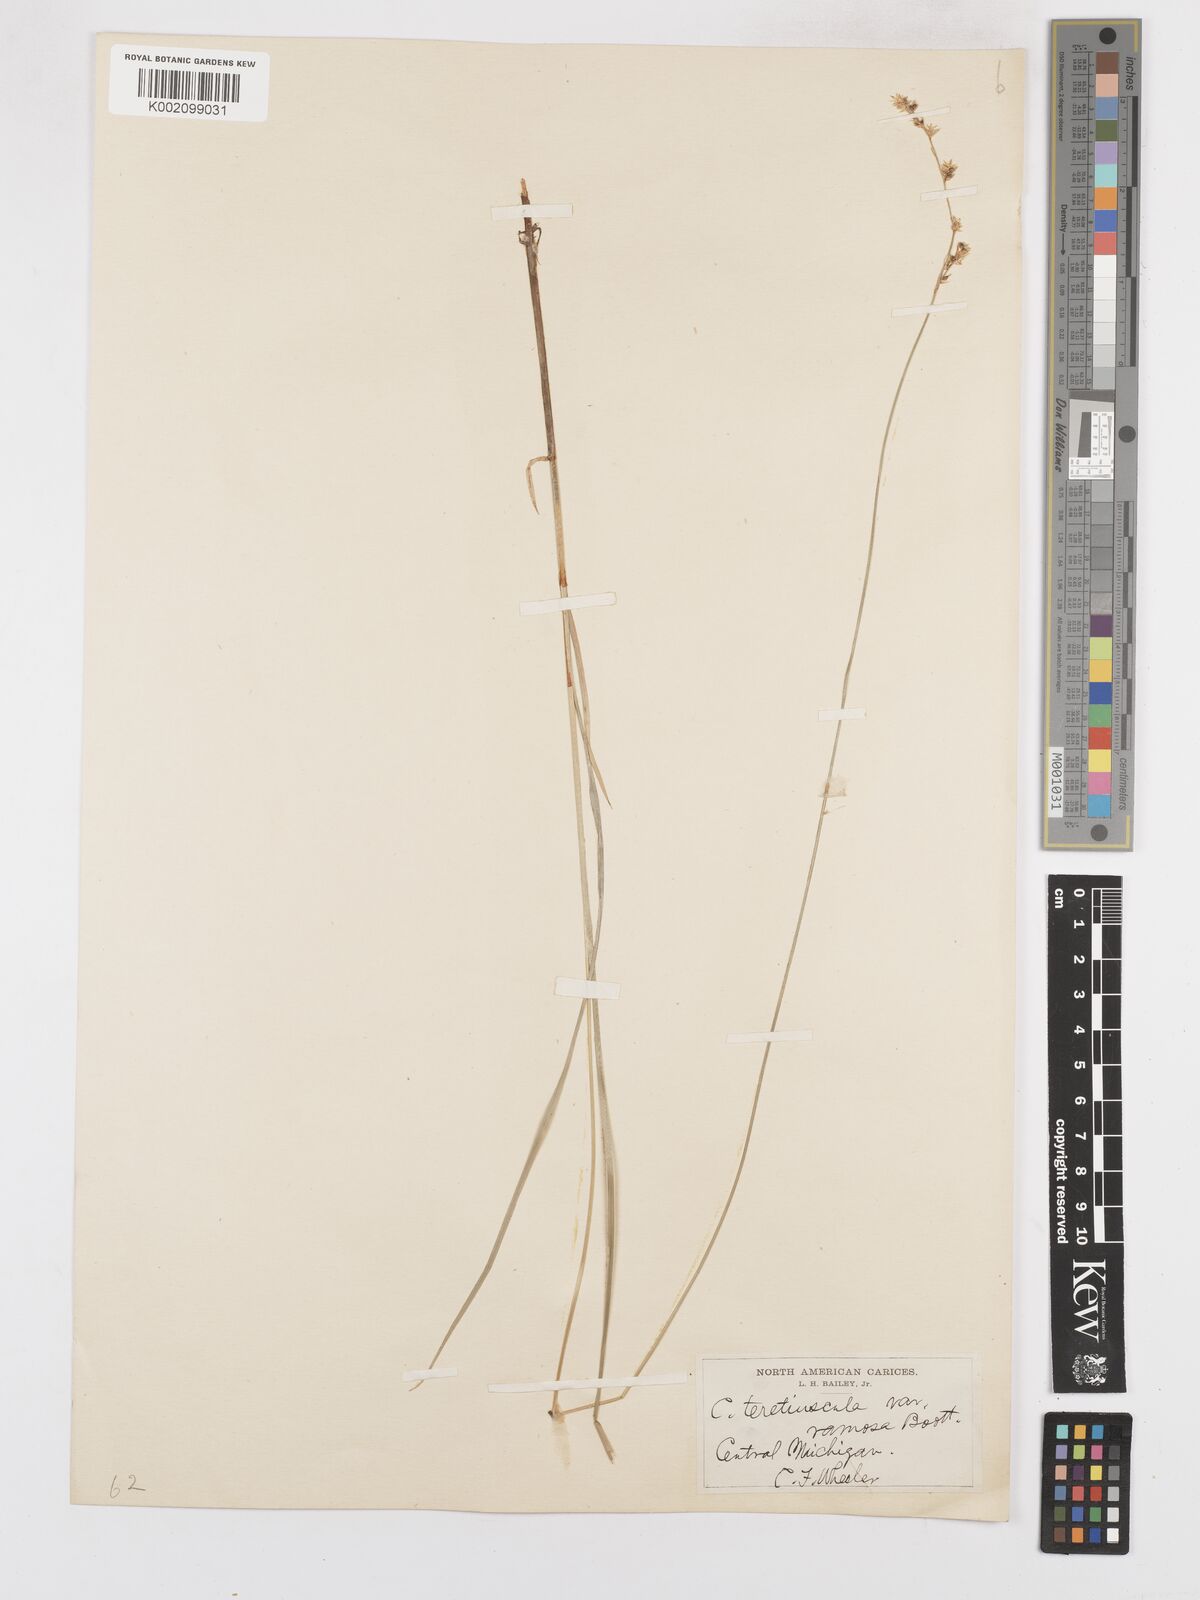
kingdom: Plantae
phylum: Tracheophyta
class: Liliopsida
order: Poales
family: Cyperaceae
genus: Carex
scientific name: Carex diandra
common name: Lesser tussock-sedge
